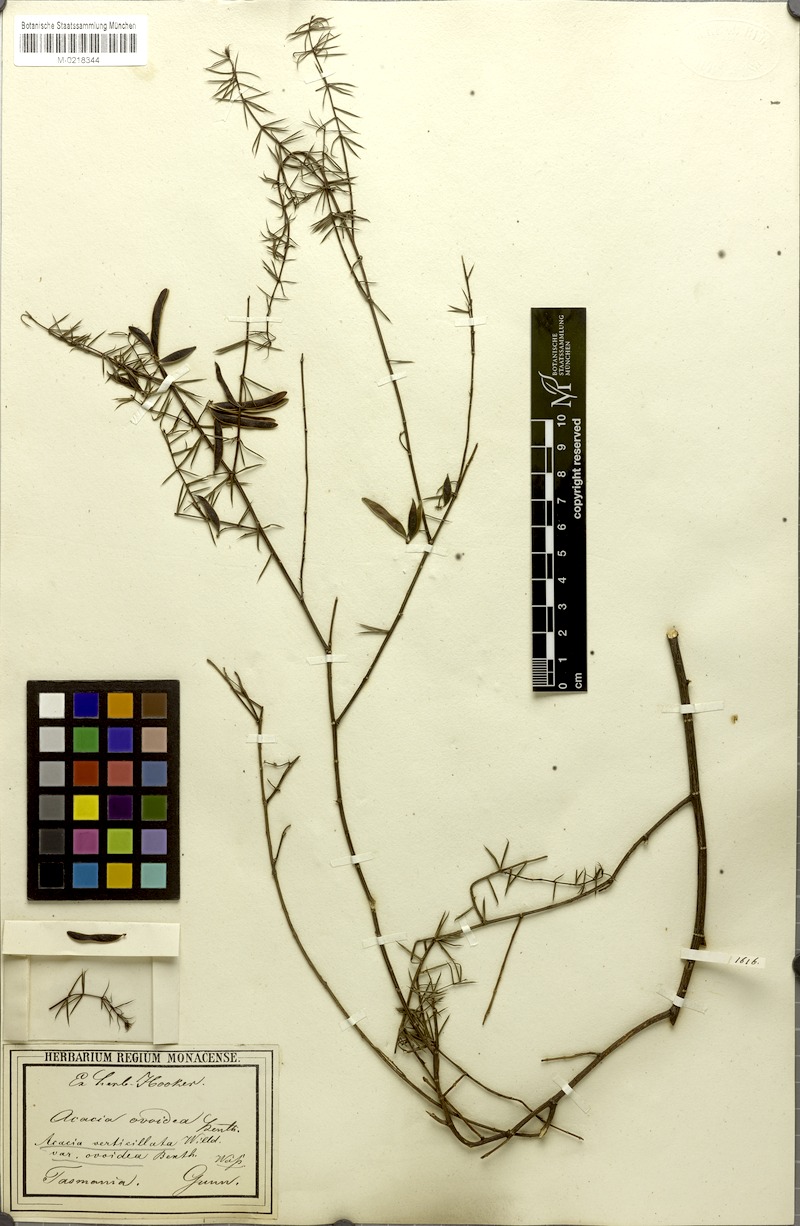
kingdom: Plantae
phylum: Tracheophyta
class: Magnoliopsida
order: Fabales
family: Fabaceae
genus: Acacia
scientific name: Acacia verticillata
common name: Prickly moses
